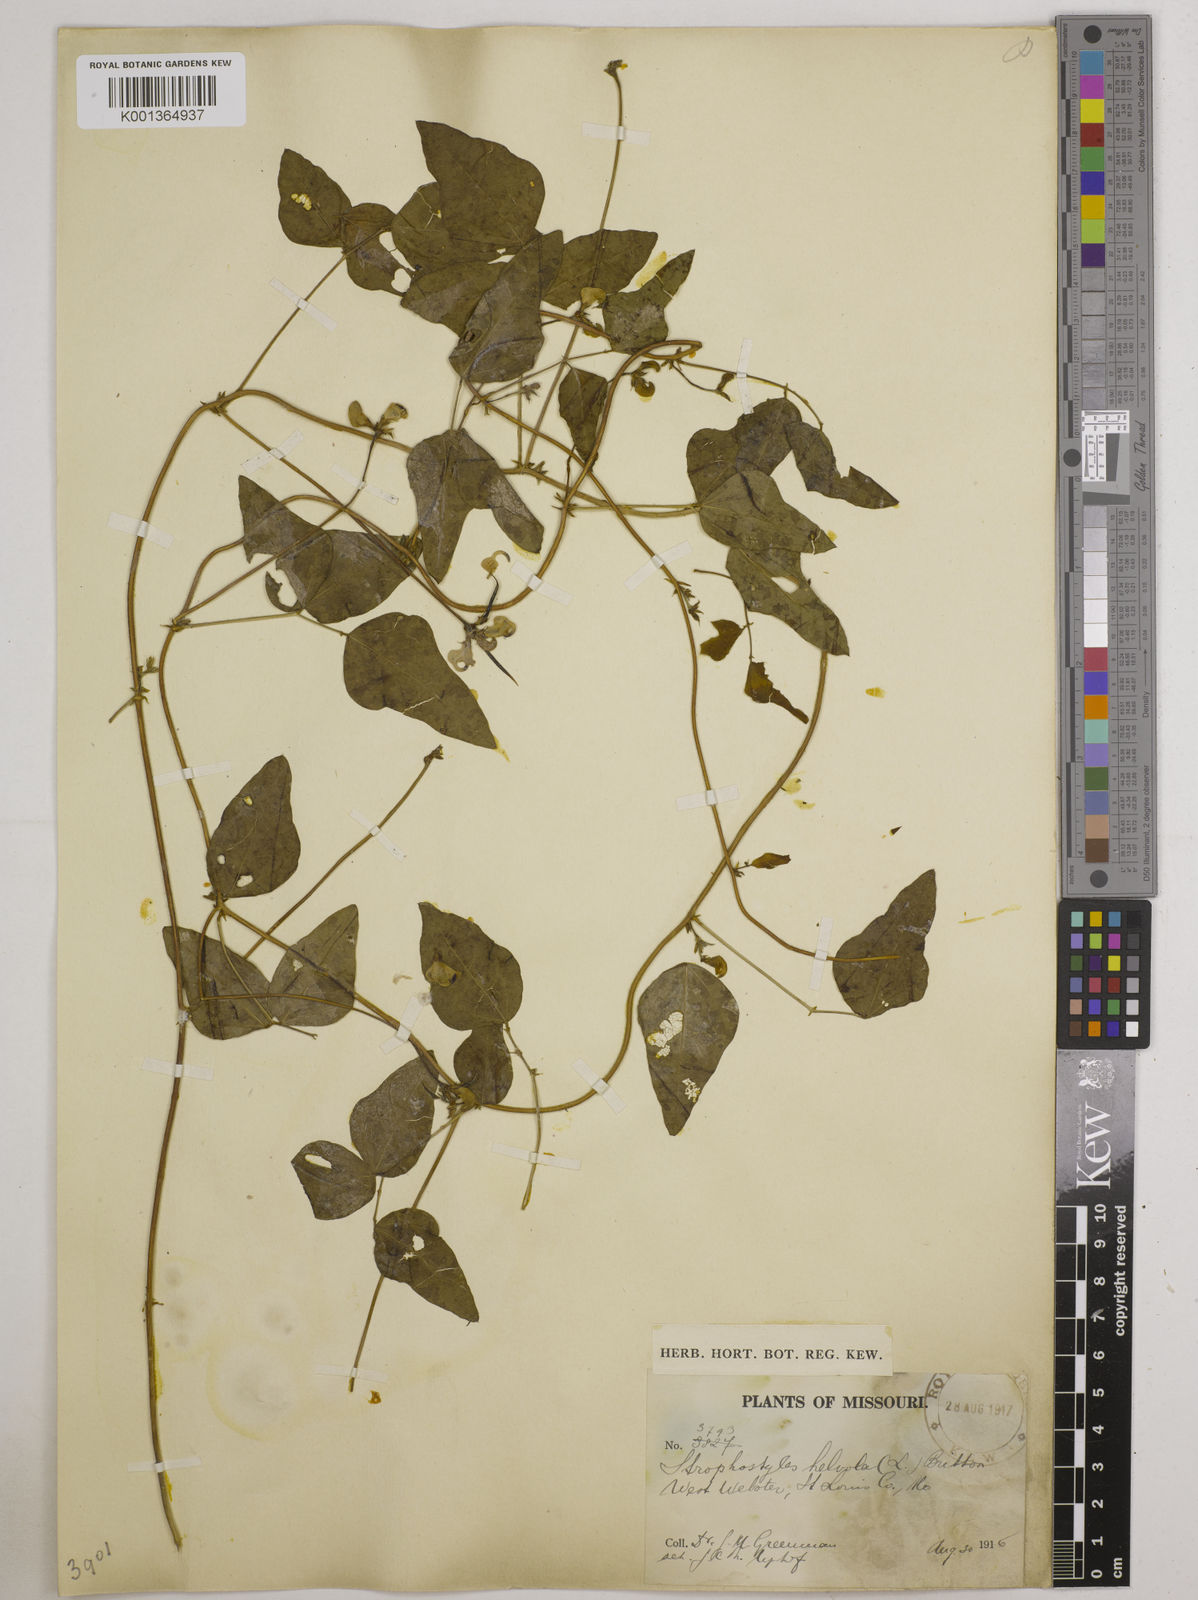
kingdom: Plantae
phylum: Tracheophyta
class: Magnoliopsida
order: Fabales
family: Fabaceae
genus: Strophostyles
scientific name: Strophostyles
